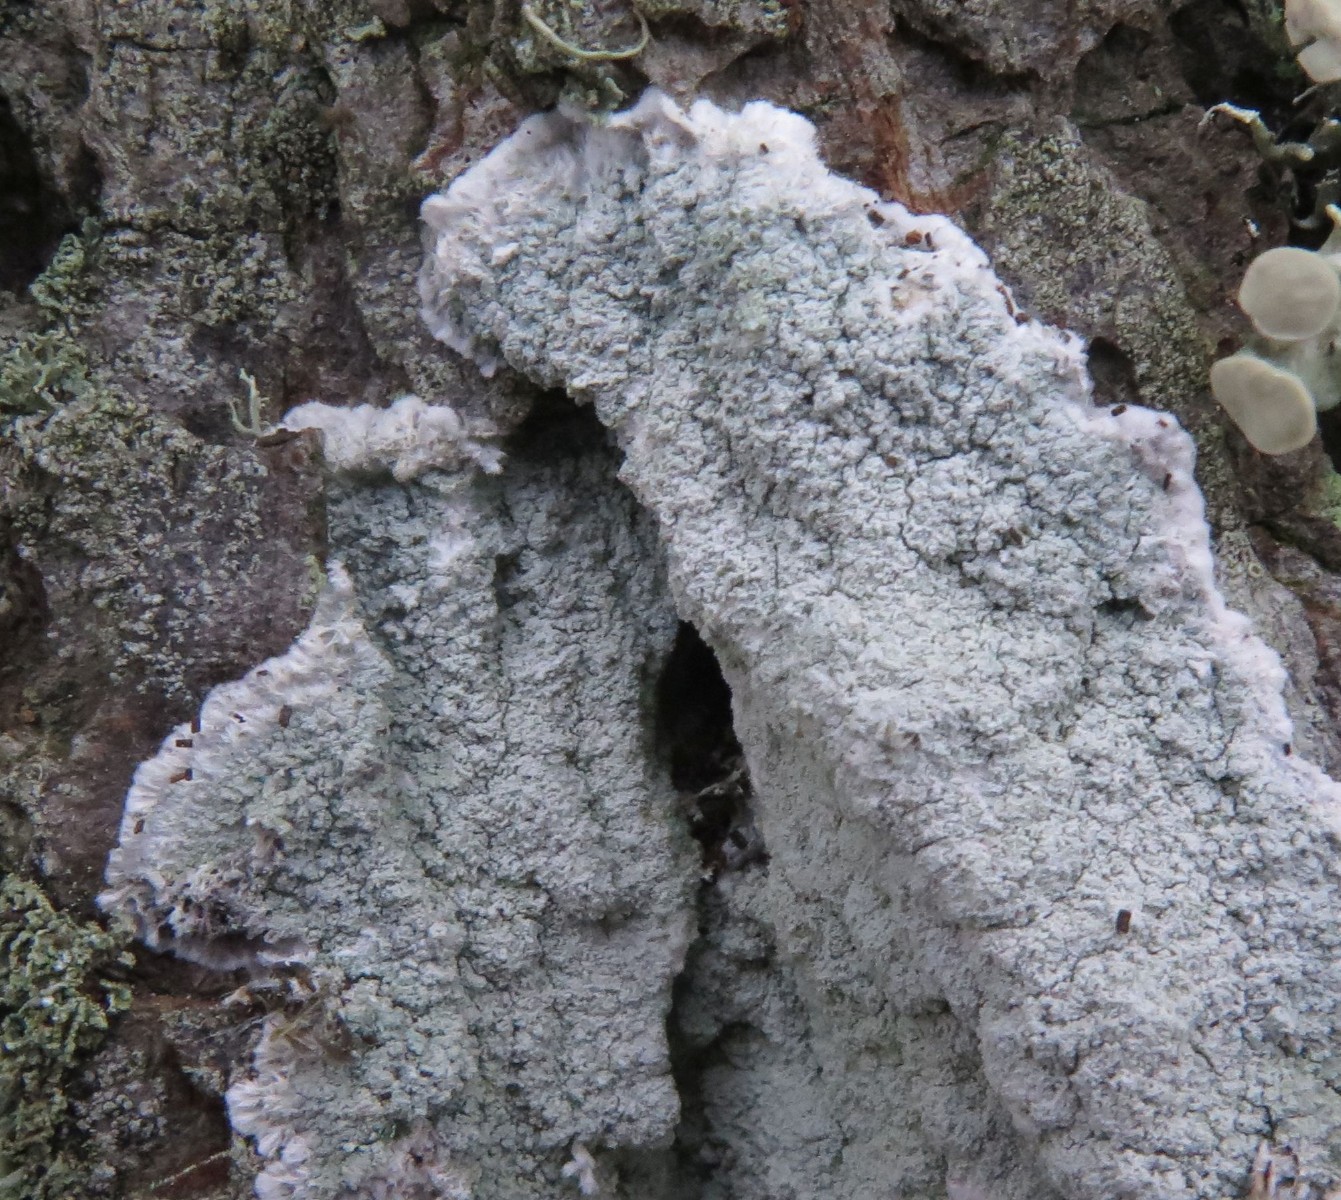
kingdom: Fungi
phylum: Ascomycota
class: Lecanoromycetes
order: Lecanorales
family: Haematommataceae
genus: Haematomma
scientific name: Haematomma ochroleucum
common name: gul trådkantlav
